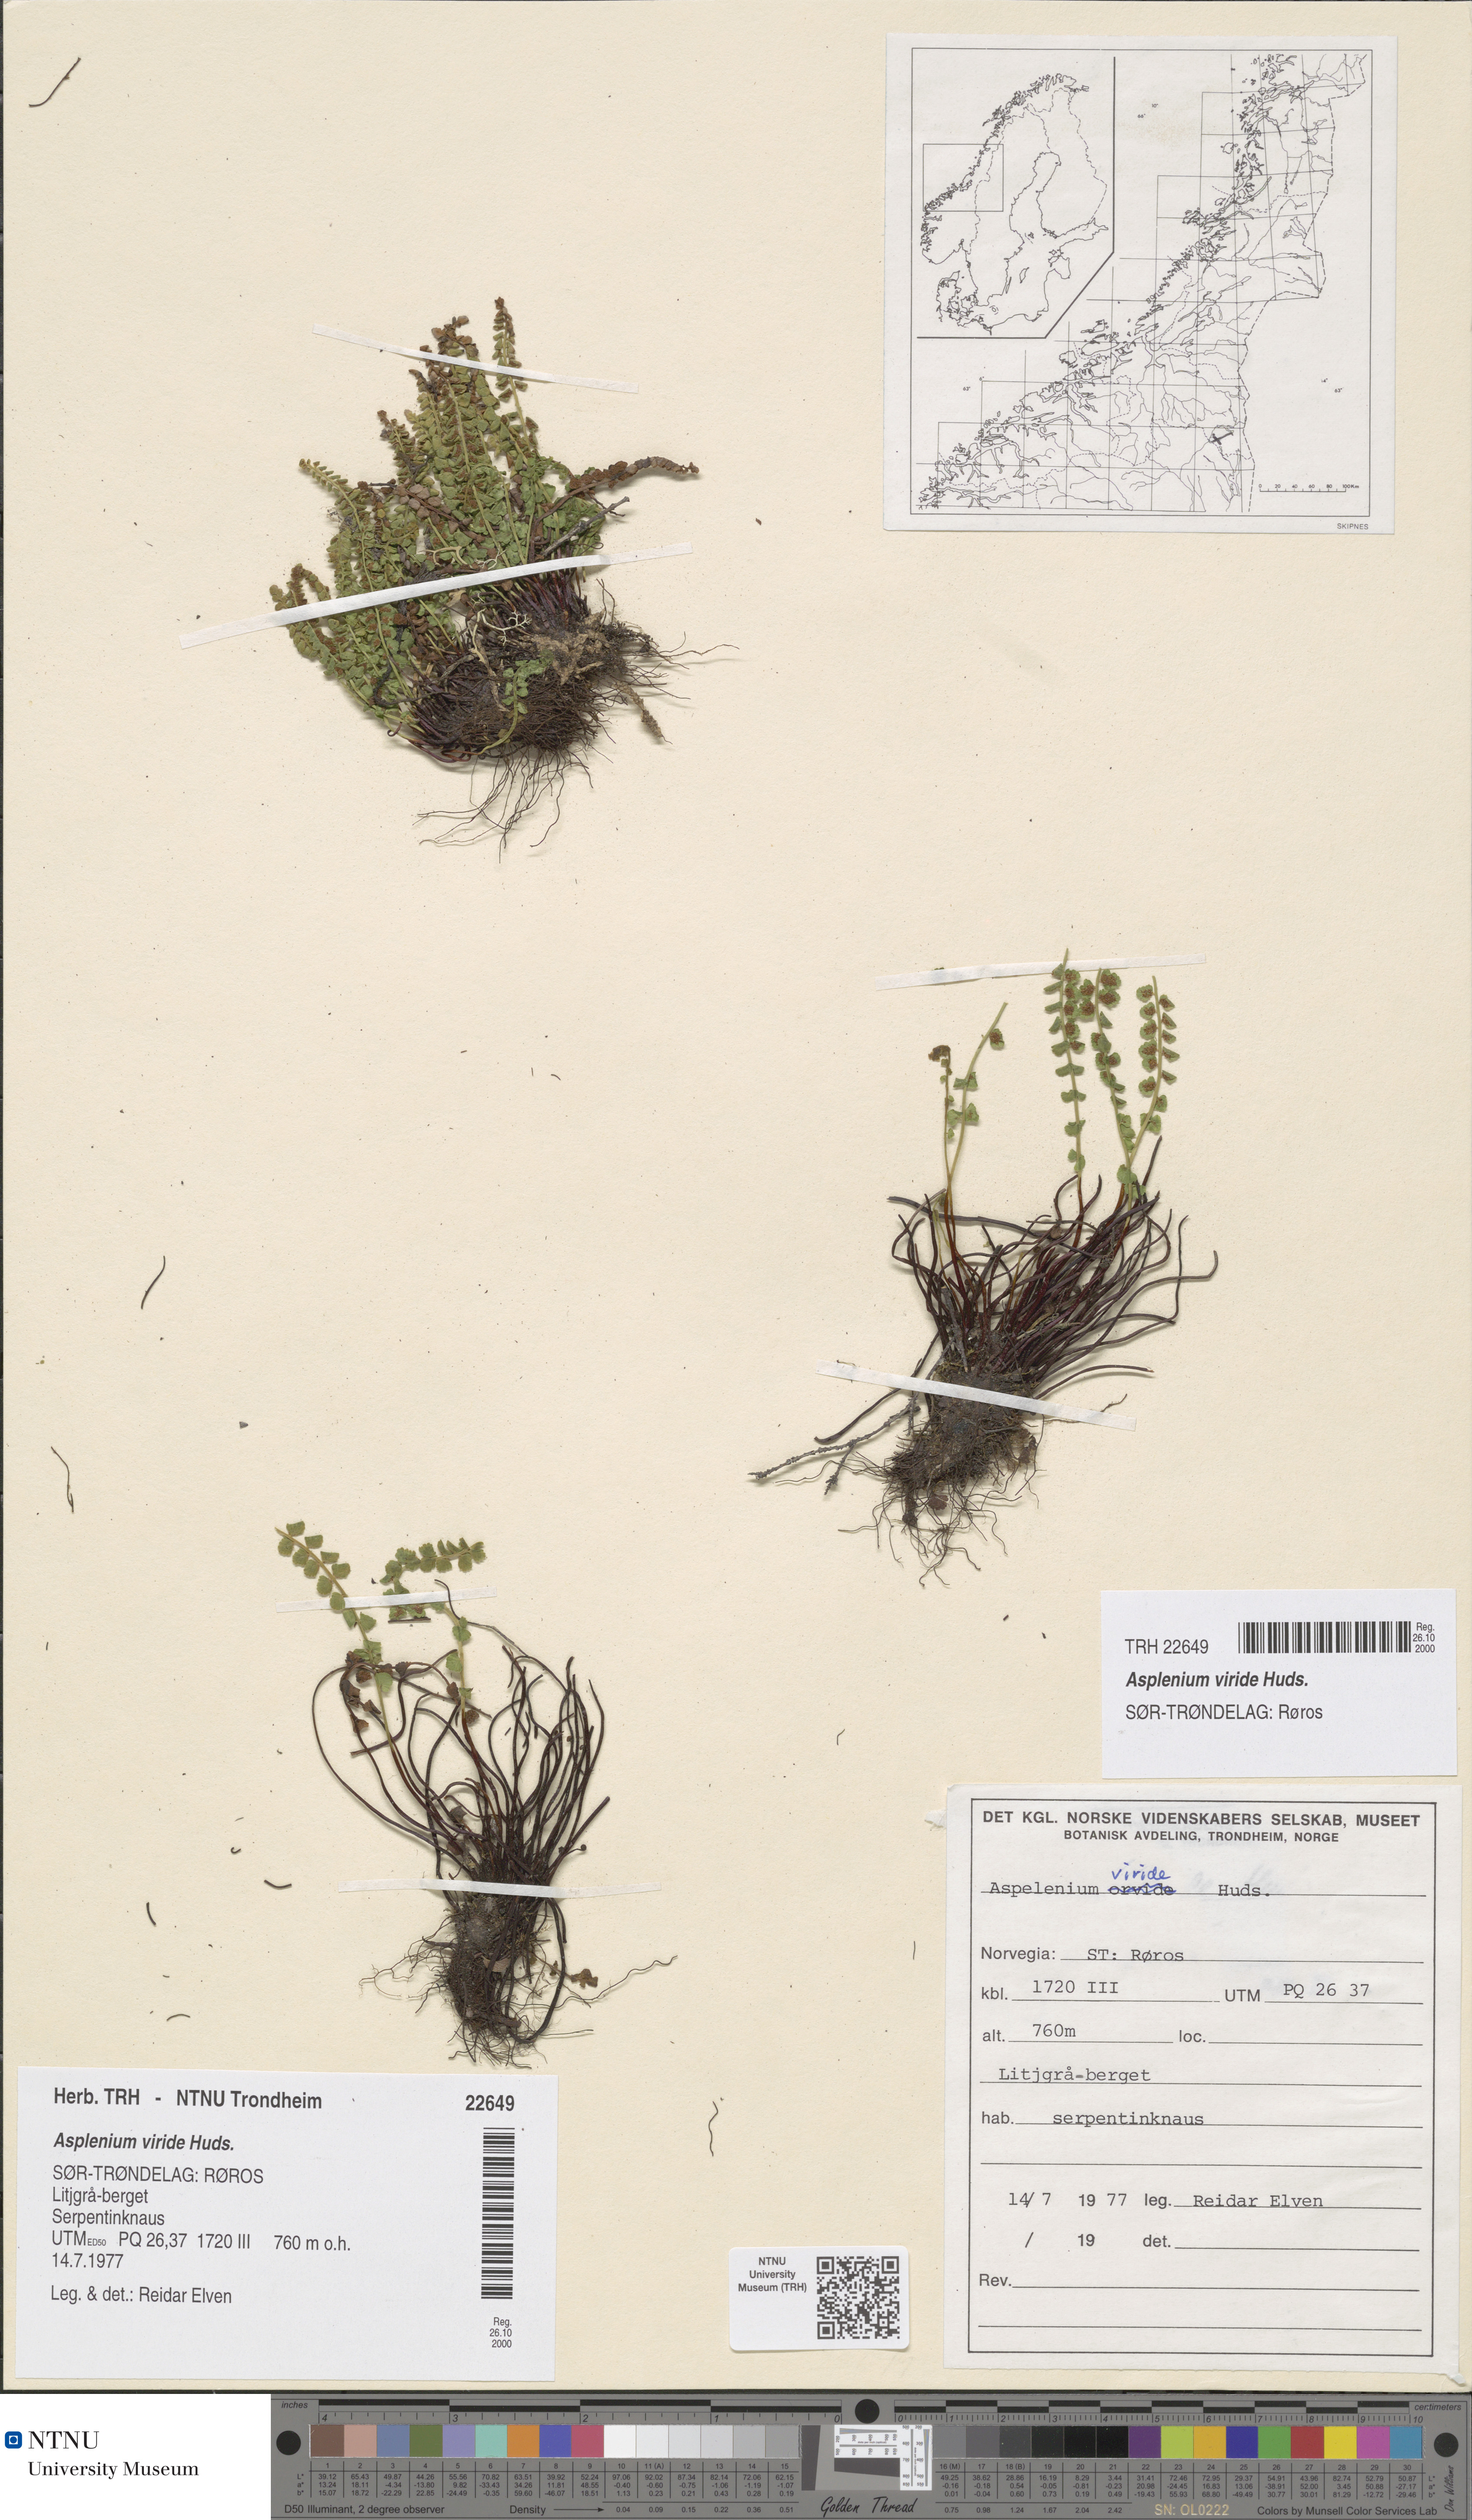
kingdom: Plantae
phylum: Tracheophyta
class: Polypodiopsida
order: Polypodiales
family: Aspleniaceae
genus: Asplenium
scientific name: Asplenium viride
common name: Green spleenwort
